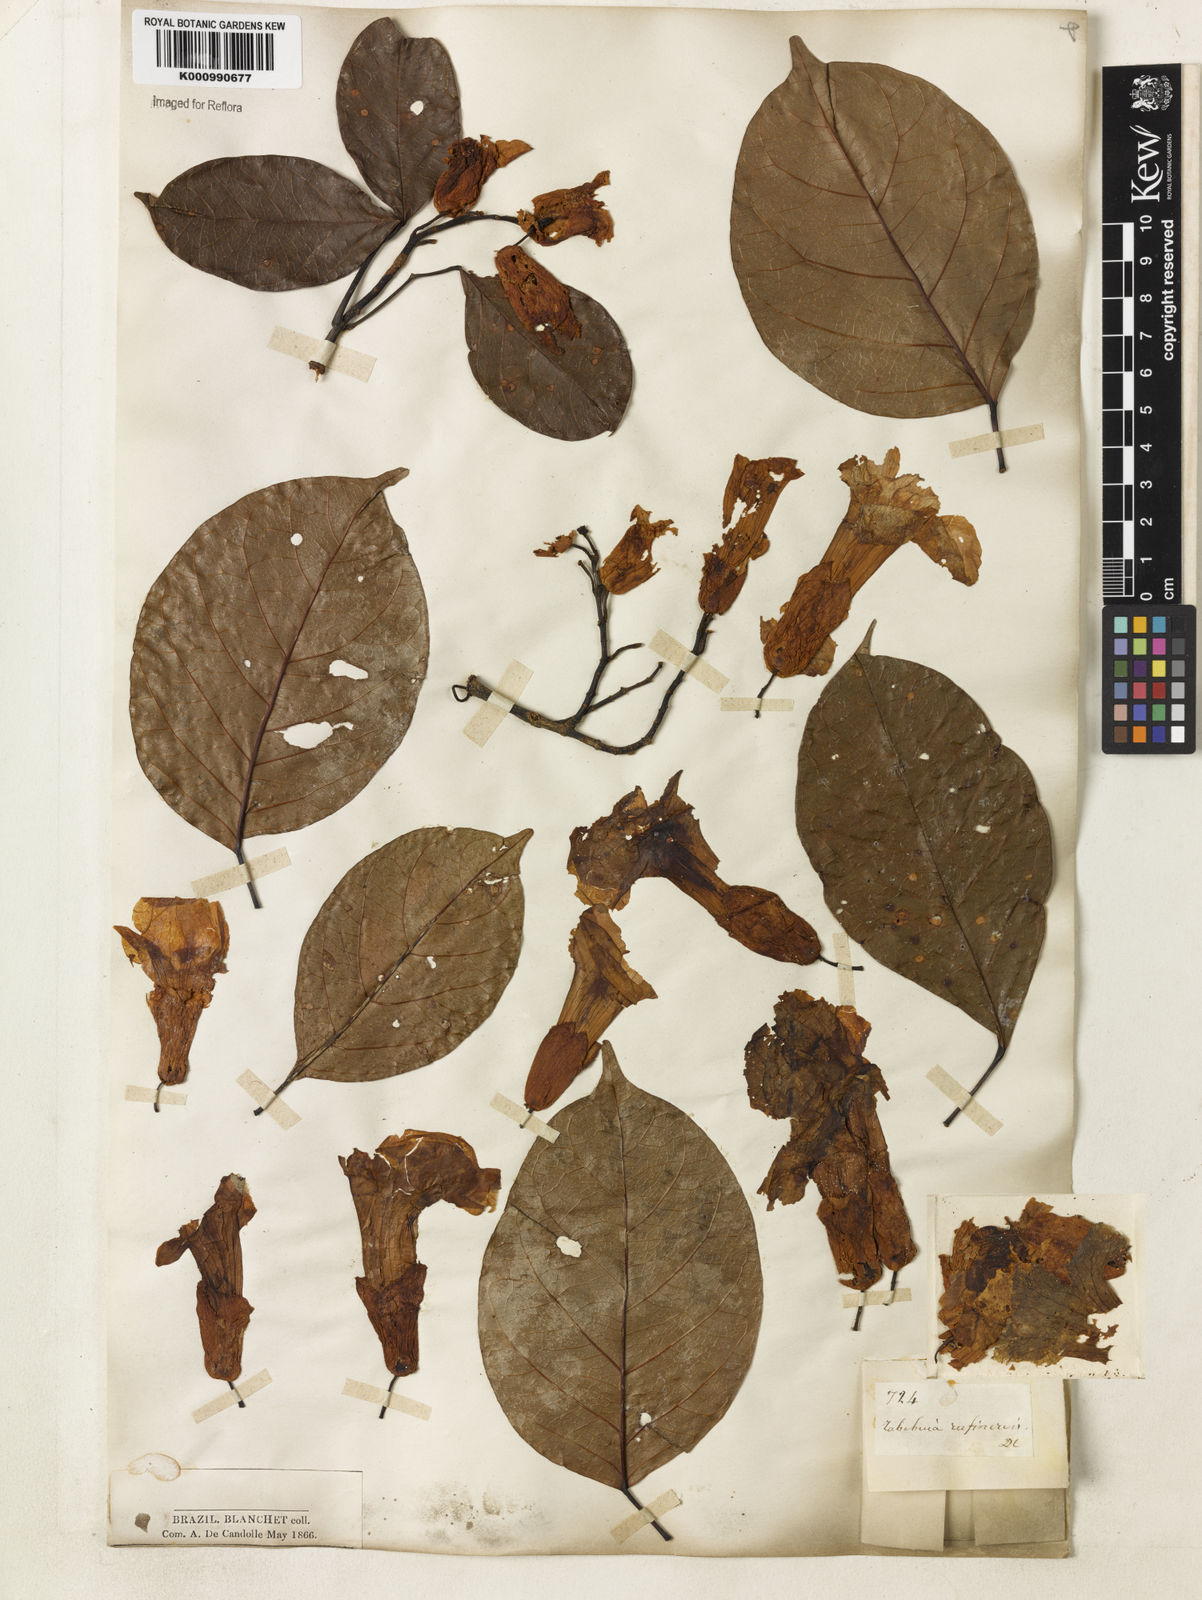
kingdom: Plantae
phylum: Tracheophyta
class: Magnoliopsida
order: Lamiales
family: Bignoniaceae
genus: Callichlamys
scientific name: Callichlamys latifolia
